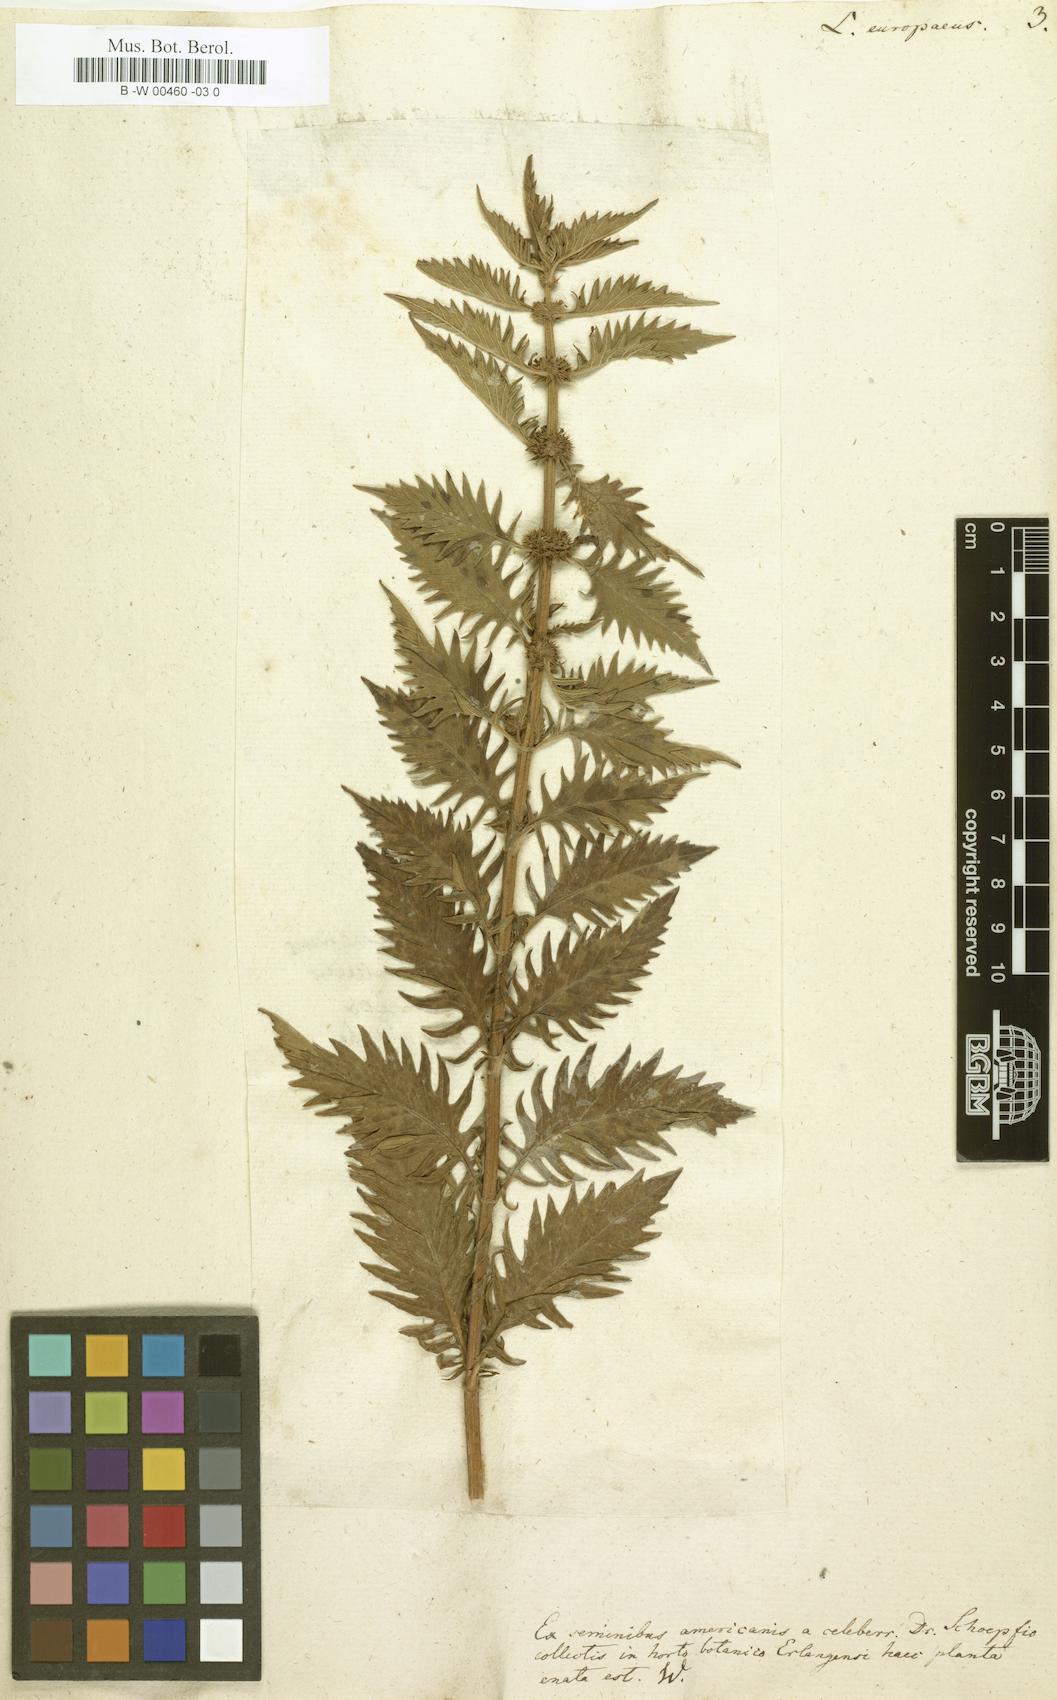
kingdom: Plantae
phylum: Tracheophyta
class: Magnoliopsida
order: Lamiales
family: Lamiaceae
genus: Lycopus
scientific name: Lycopus europaeus
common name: European bugleweed
